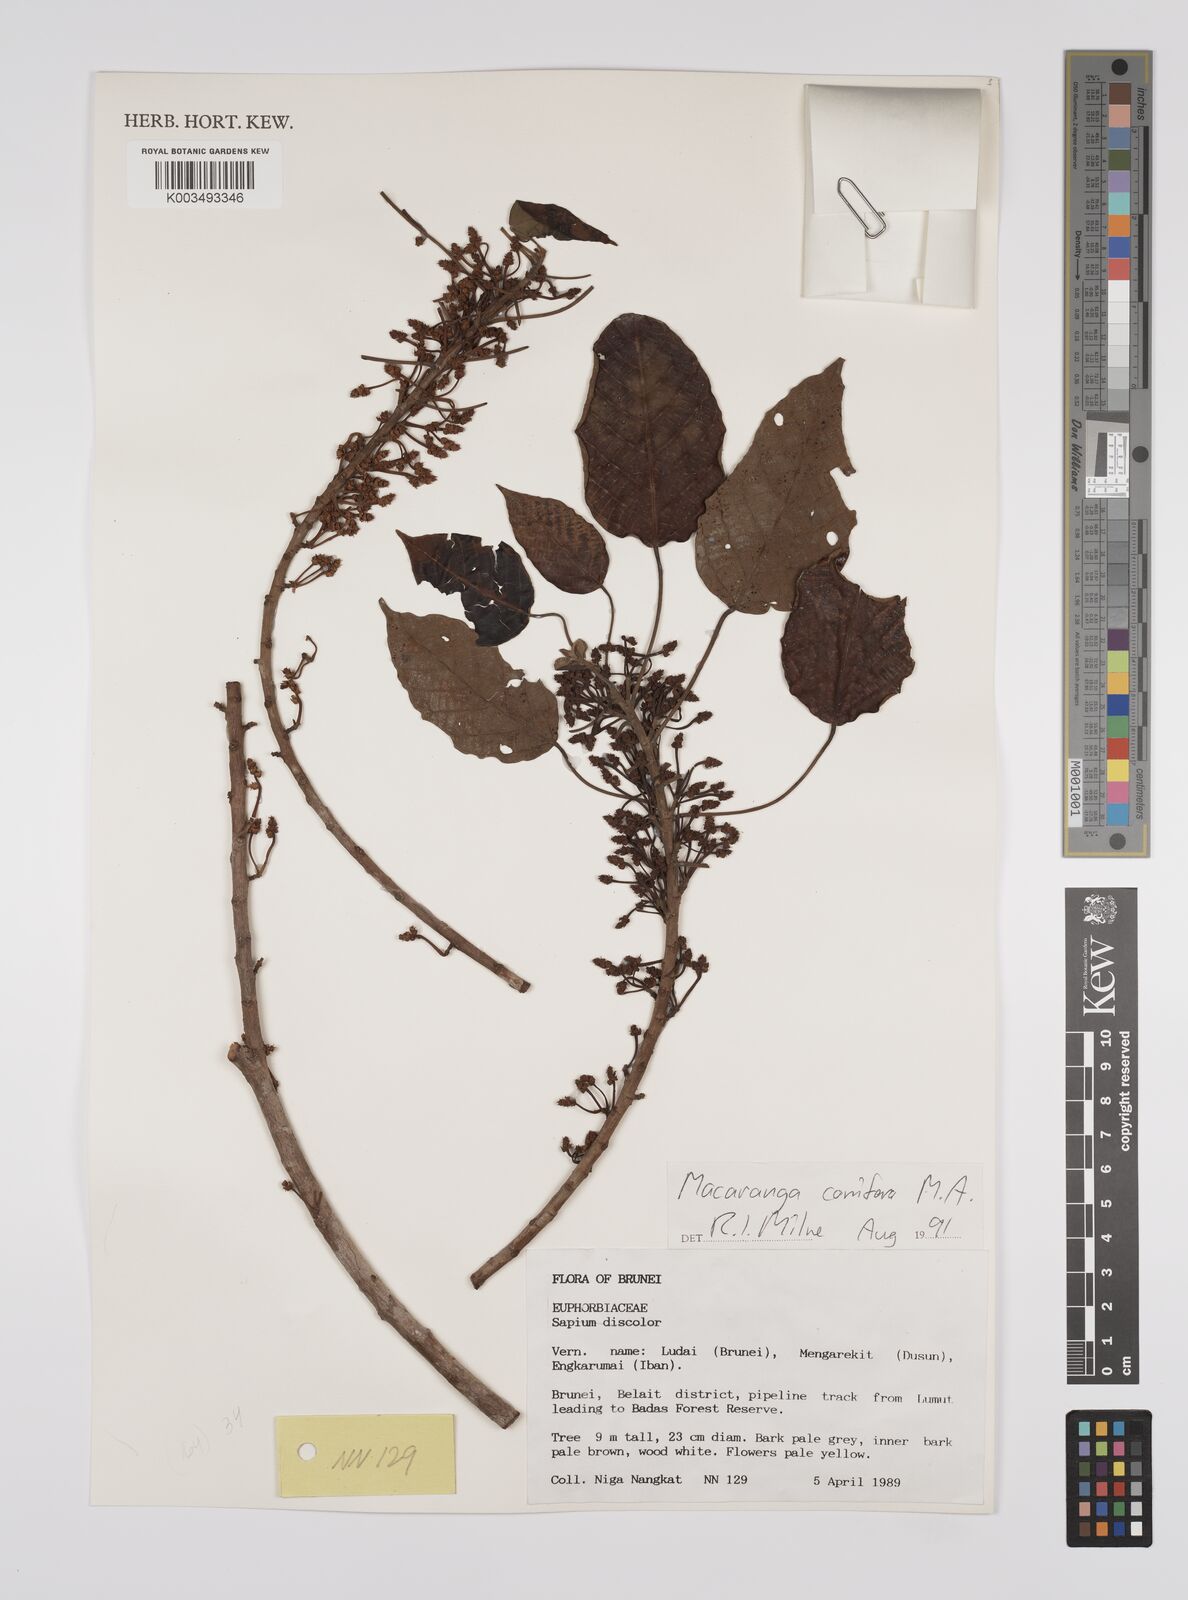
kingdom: Plantae
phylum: Tracheophyta
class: Magnoliopsida
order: Malpighiales
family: Euphorbiaceae
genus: Macaranga
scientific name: Macaranga conifera
